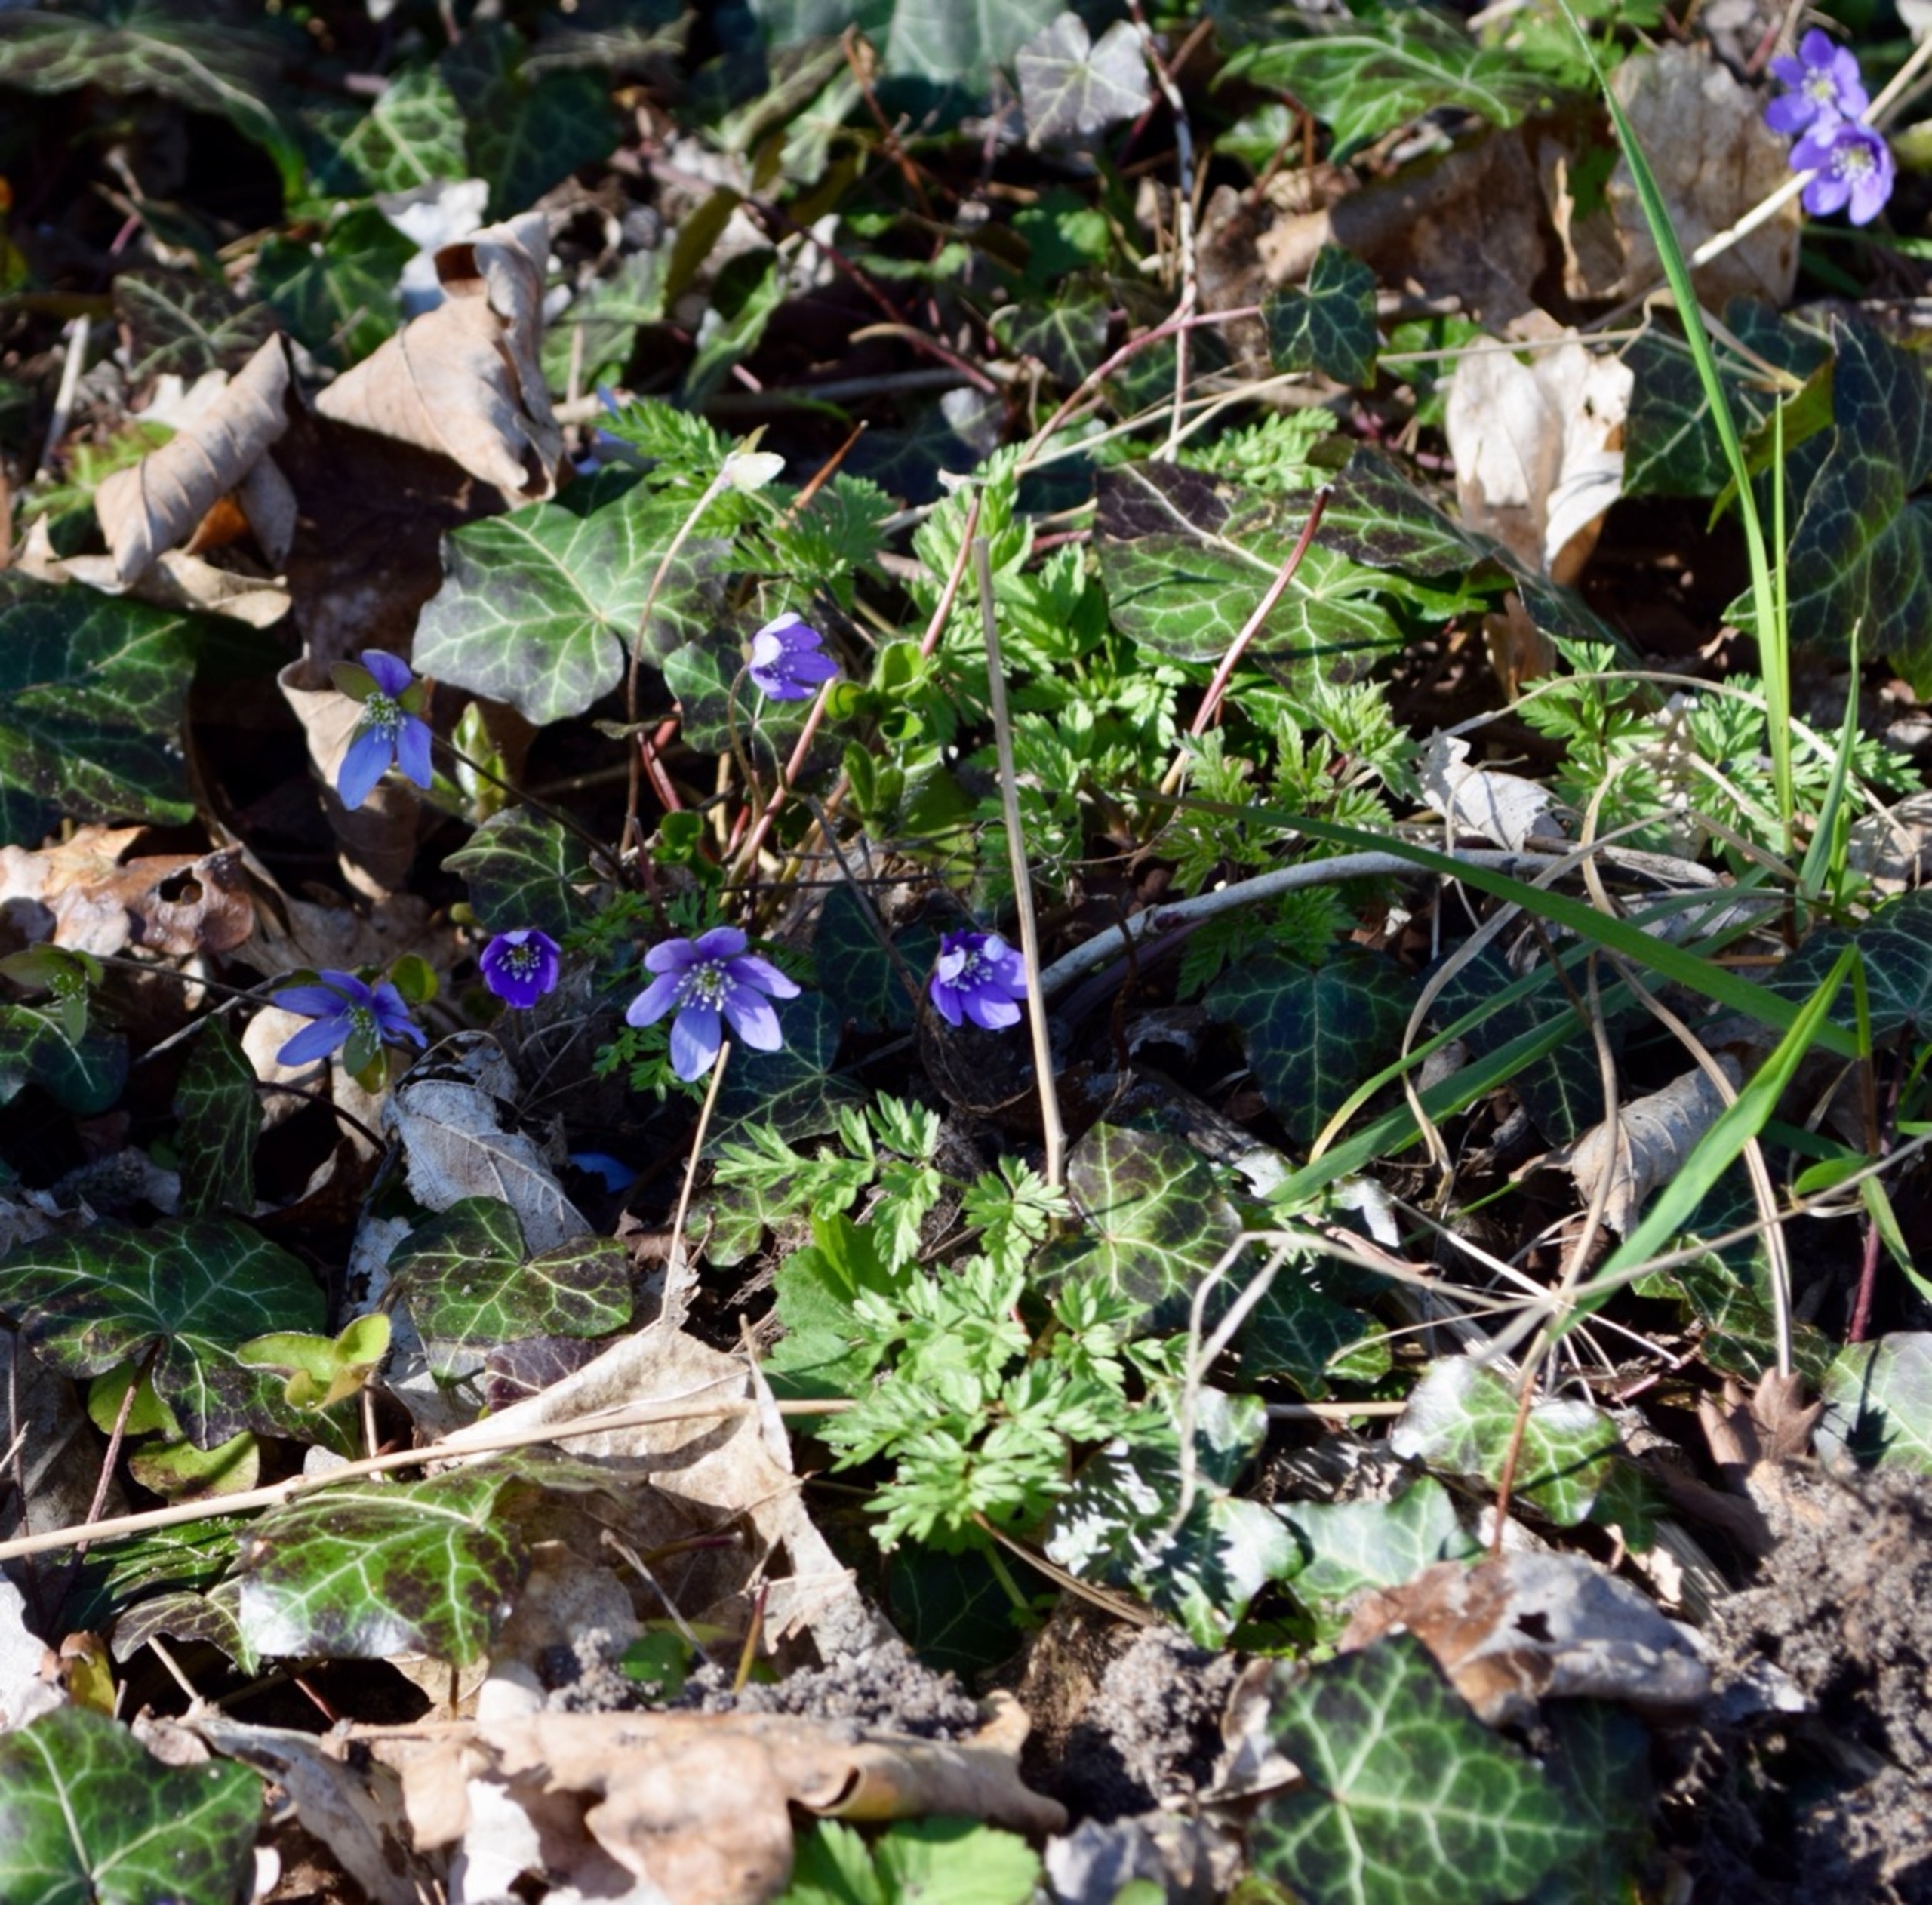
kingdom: Plantae
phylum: Tracheophyta
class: Magnoliopsida
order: Ranunculales
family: Ranunculaceae
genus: Hepatica
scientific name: Hepatica nobilis
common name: Blå anemone
